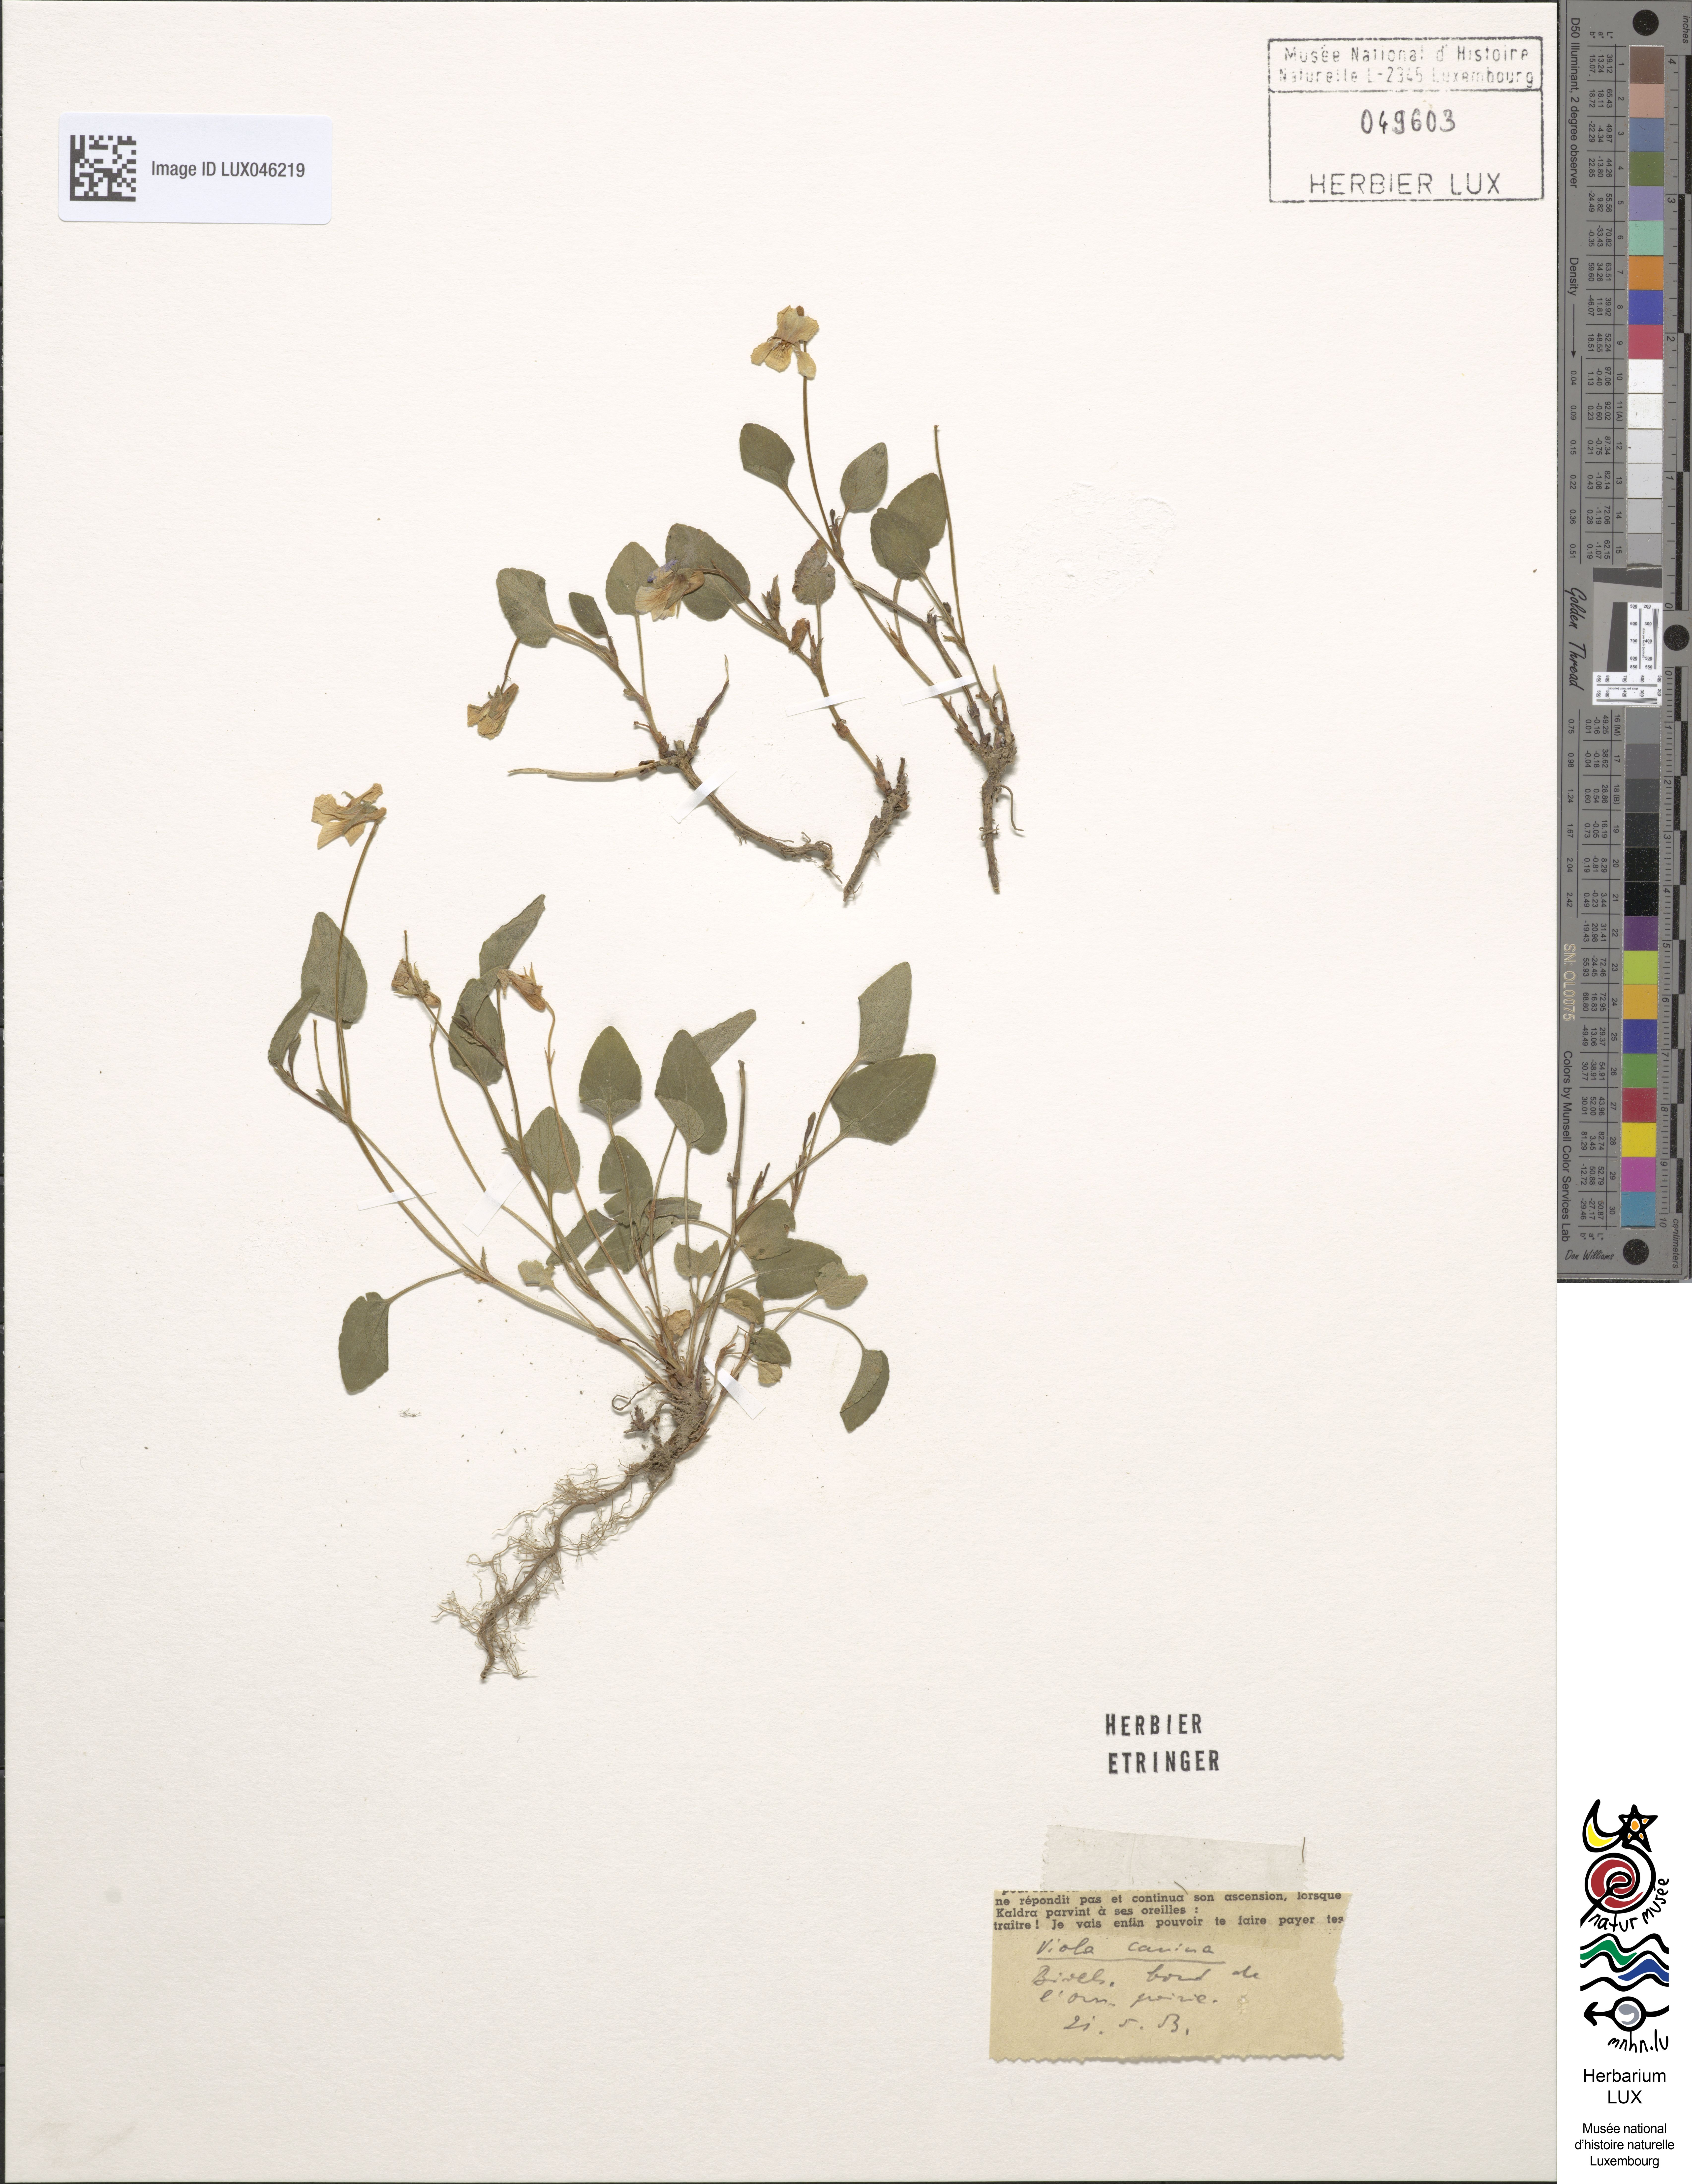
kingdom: Plantae
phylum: Tracheophyta
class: Magnoliopsida
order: Malpighiales
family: Violaceae
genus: Viola
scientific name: Viola canina
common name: Heath dog-violet
